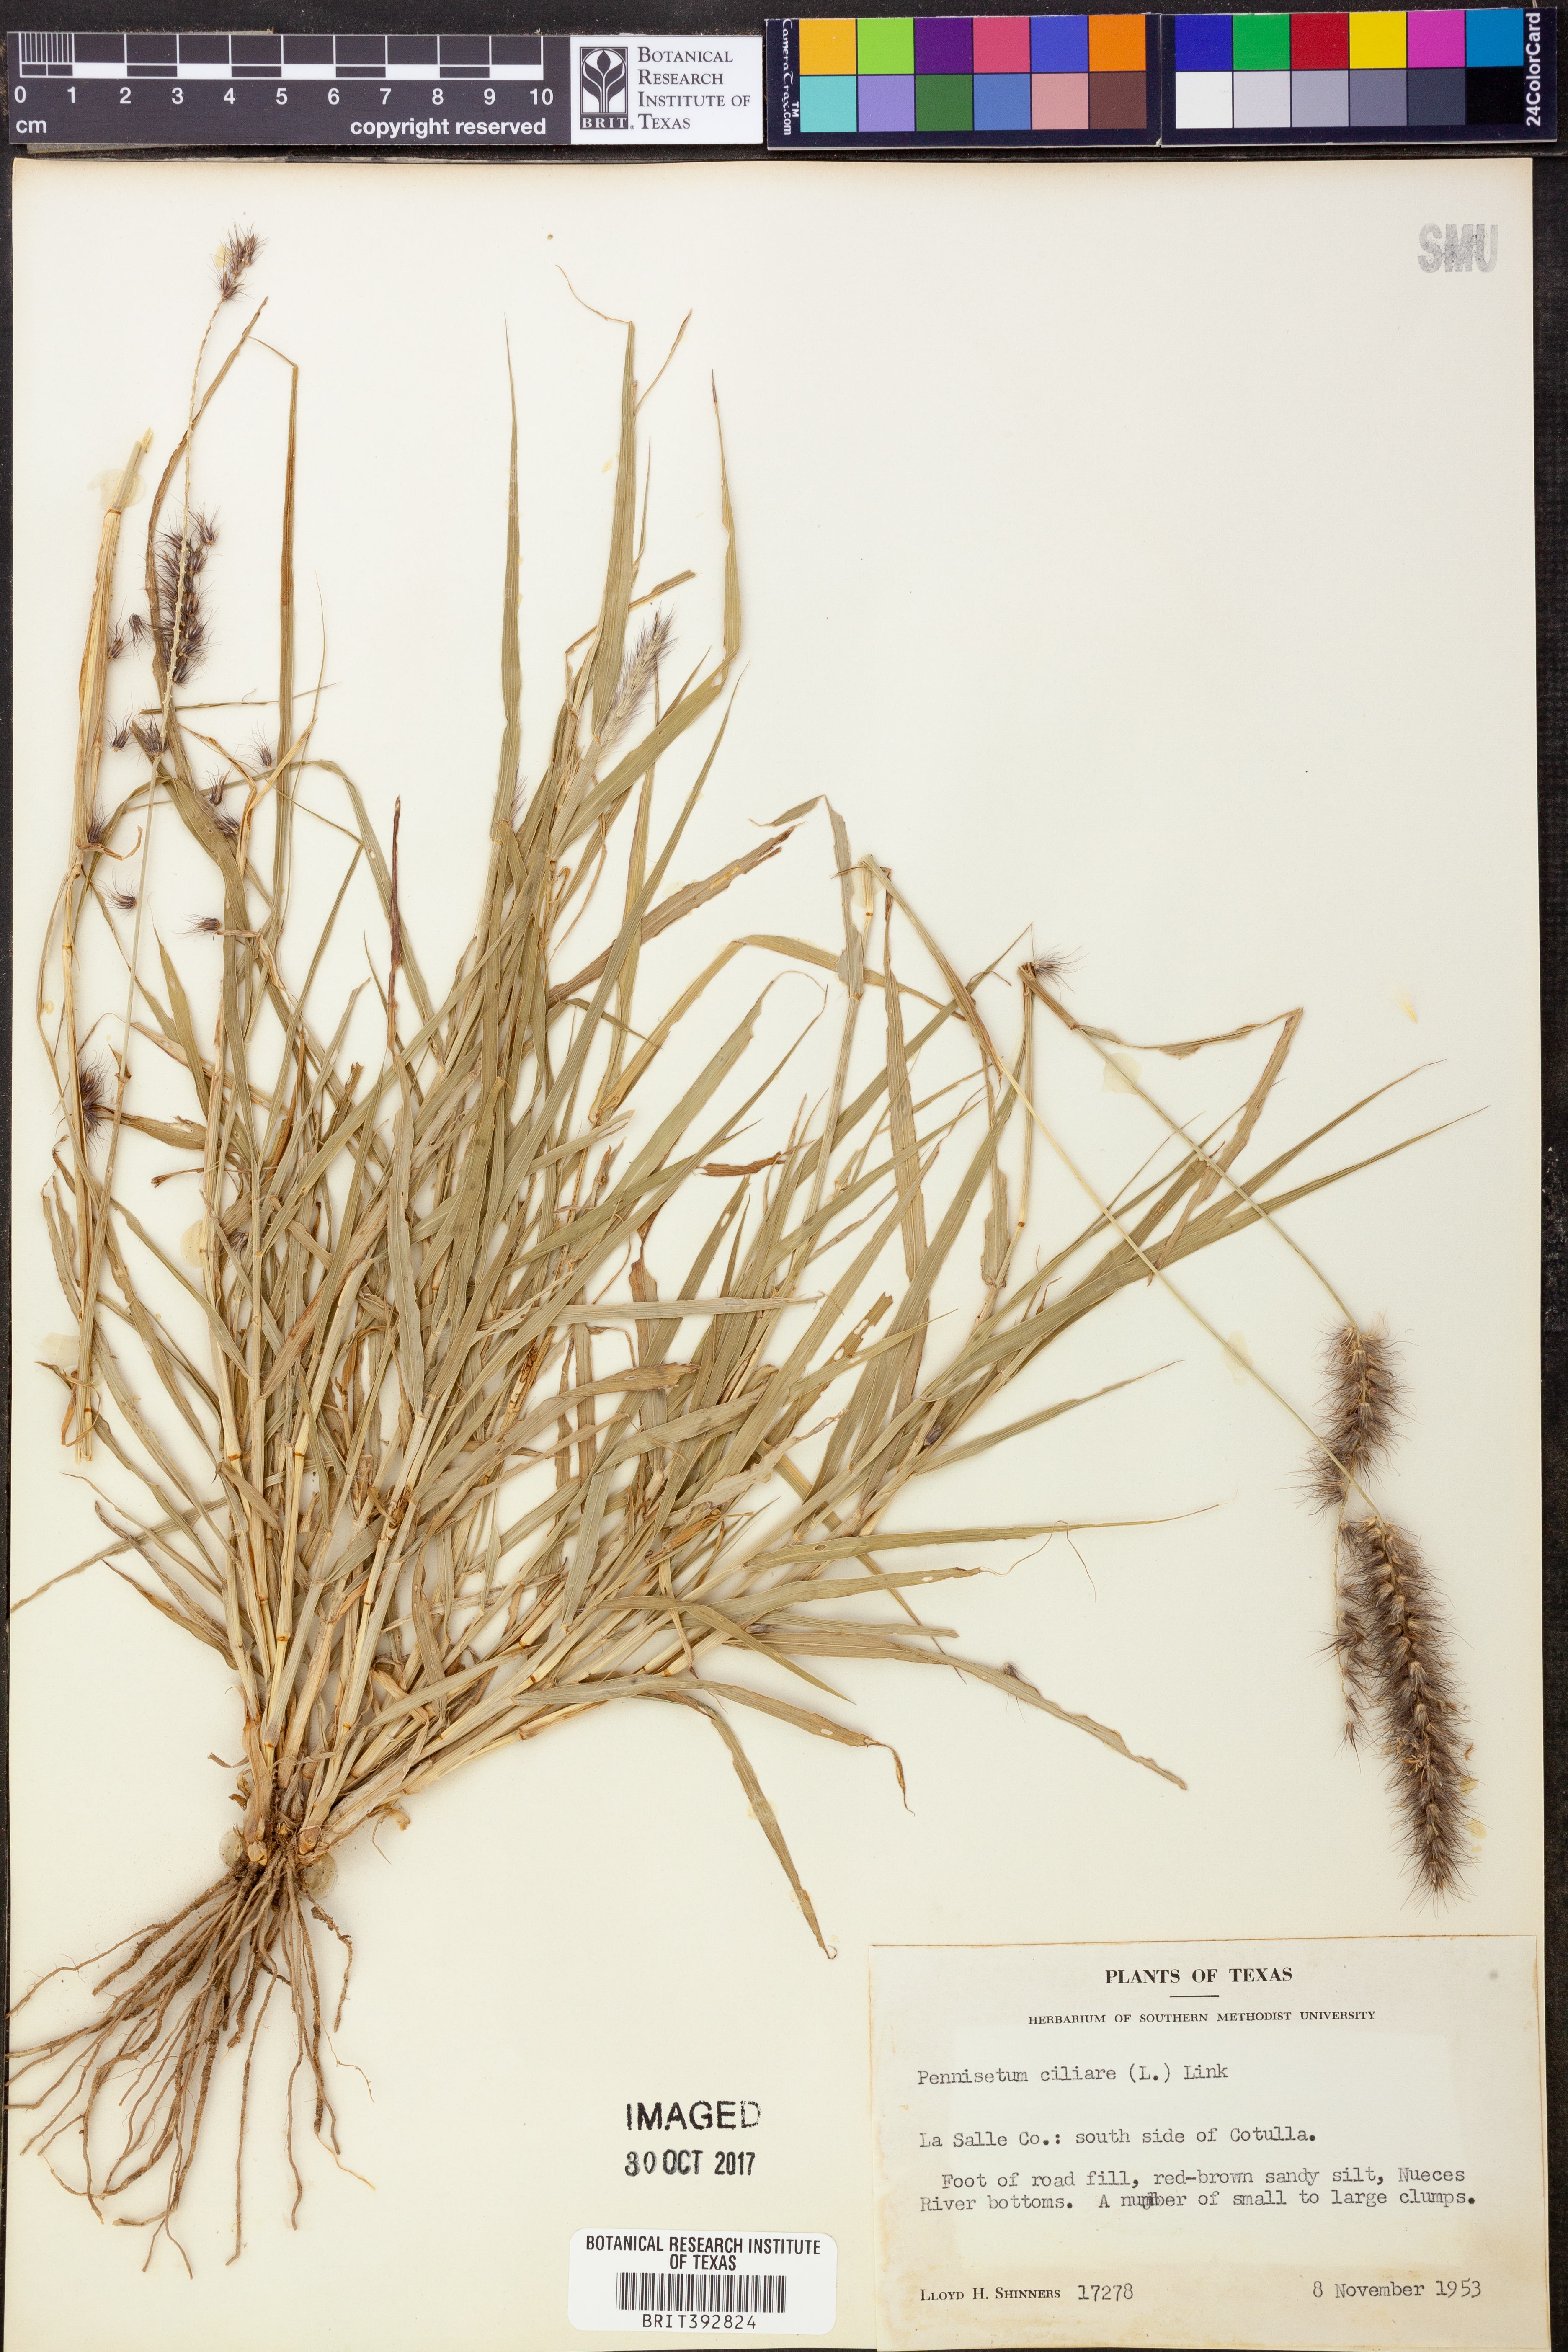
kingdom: Plantae
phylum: Tracheophyta
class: Liliopsida
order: Poales
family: Poaceae
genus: Cenchrus
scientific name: Cenchrus ciliaris
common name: Buffelgrass
